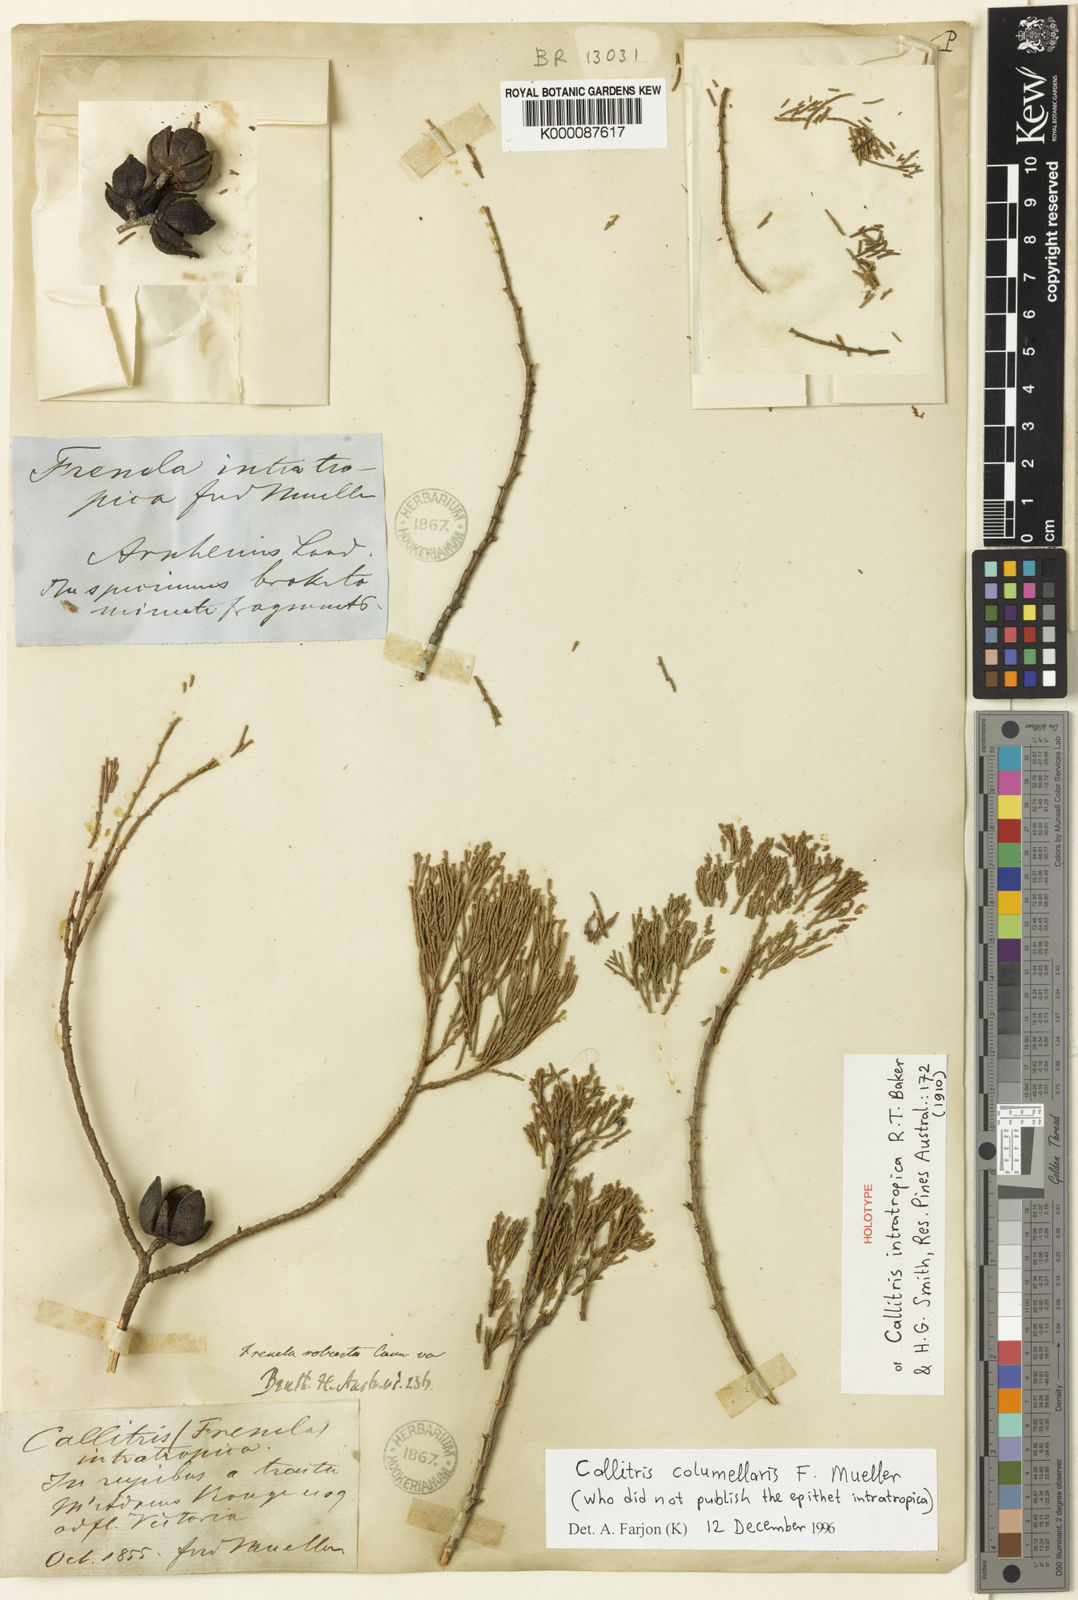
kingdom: Plantae
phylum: Tracheophyta
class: Pinopsida
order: Pinales
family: Cupressaceae
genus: Callitris
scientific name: Callitris columellaris
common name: White cypress-pine
